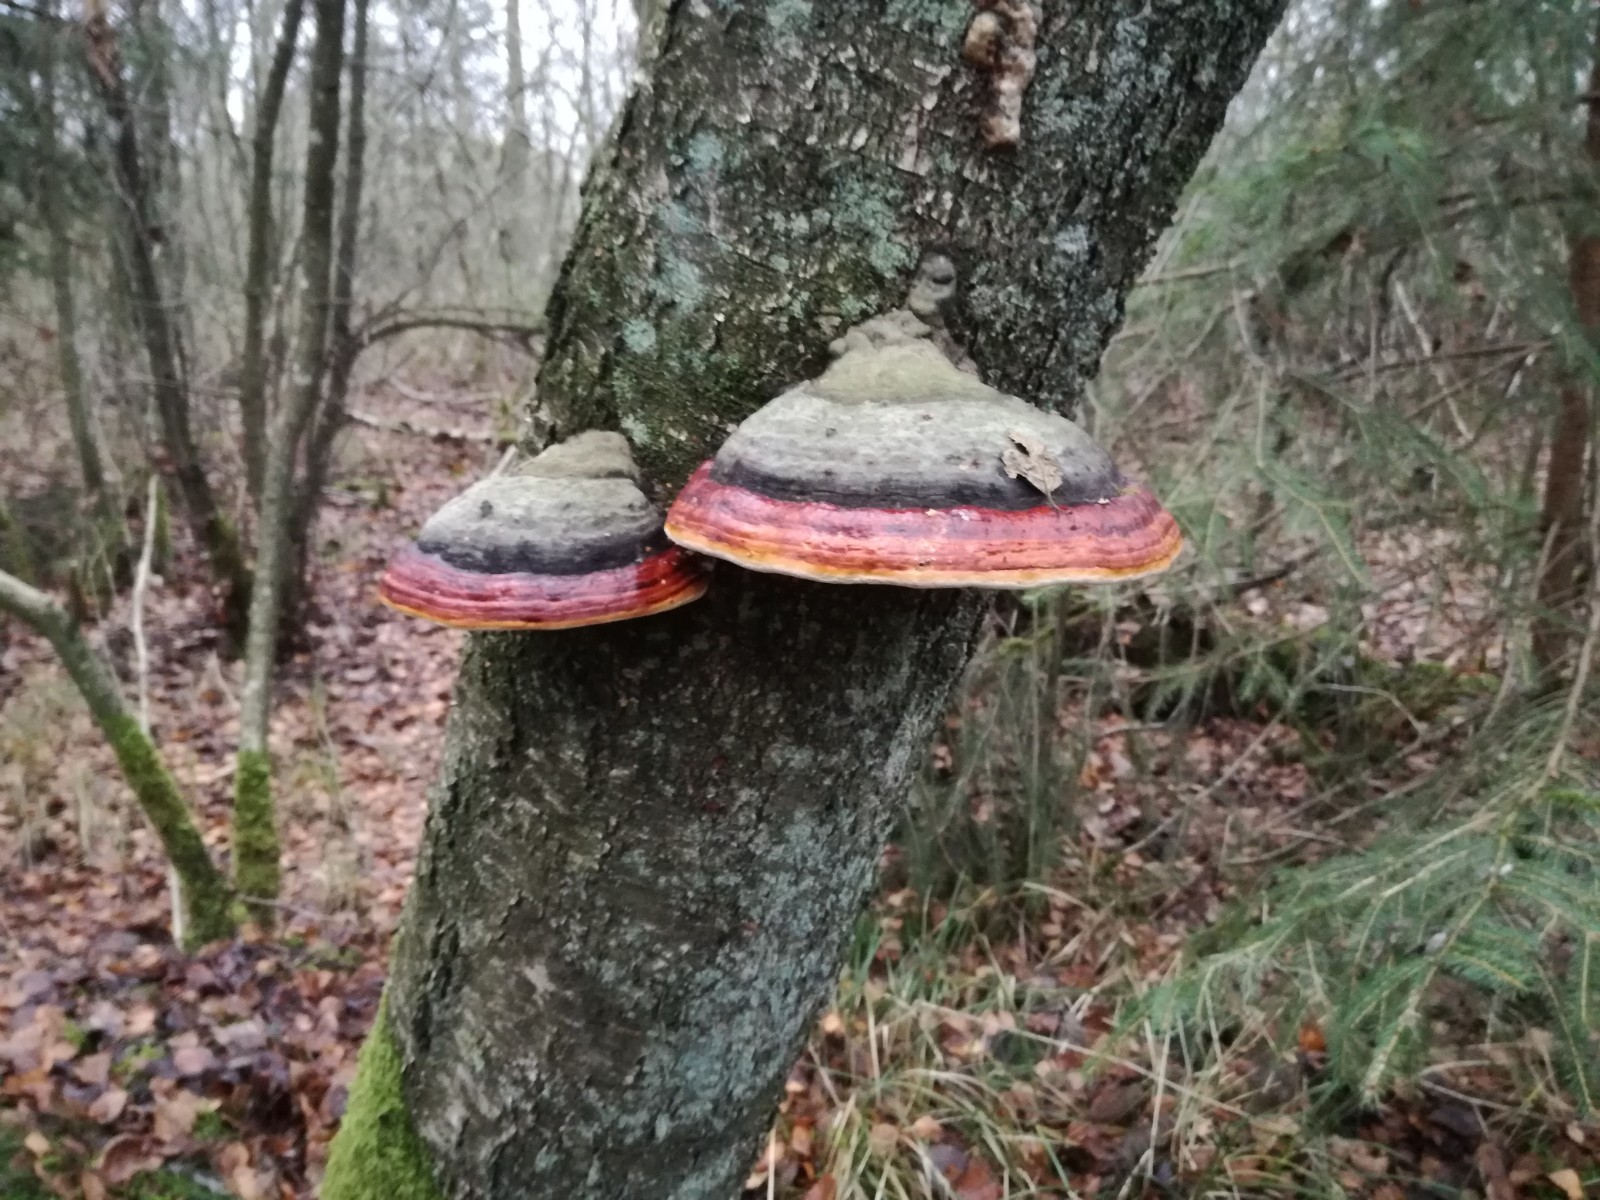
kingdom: Fungi
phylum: Basidiomycota
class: Agaricomycetes
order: Polyporales
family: Fomitopsidaceae
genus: Fomitopsis
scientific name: Fomitopsis pinicola
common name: randbæltet hovporesvamp
